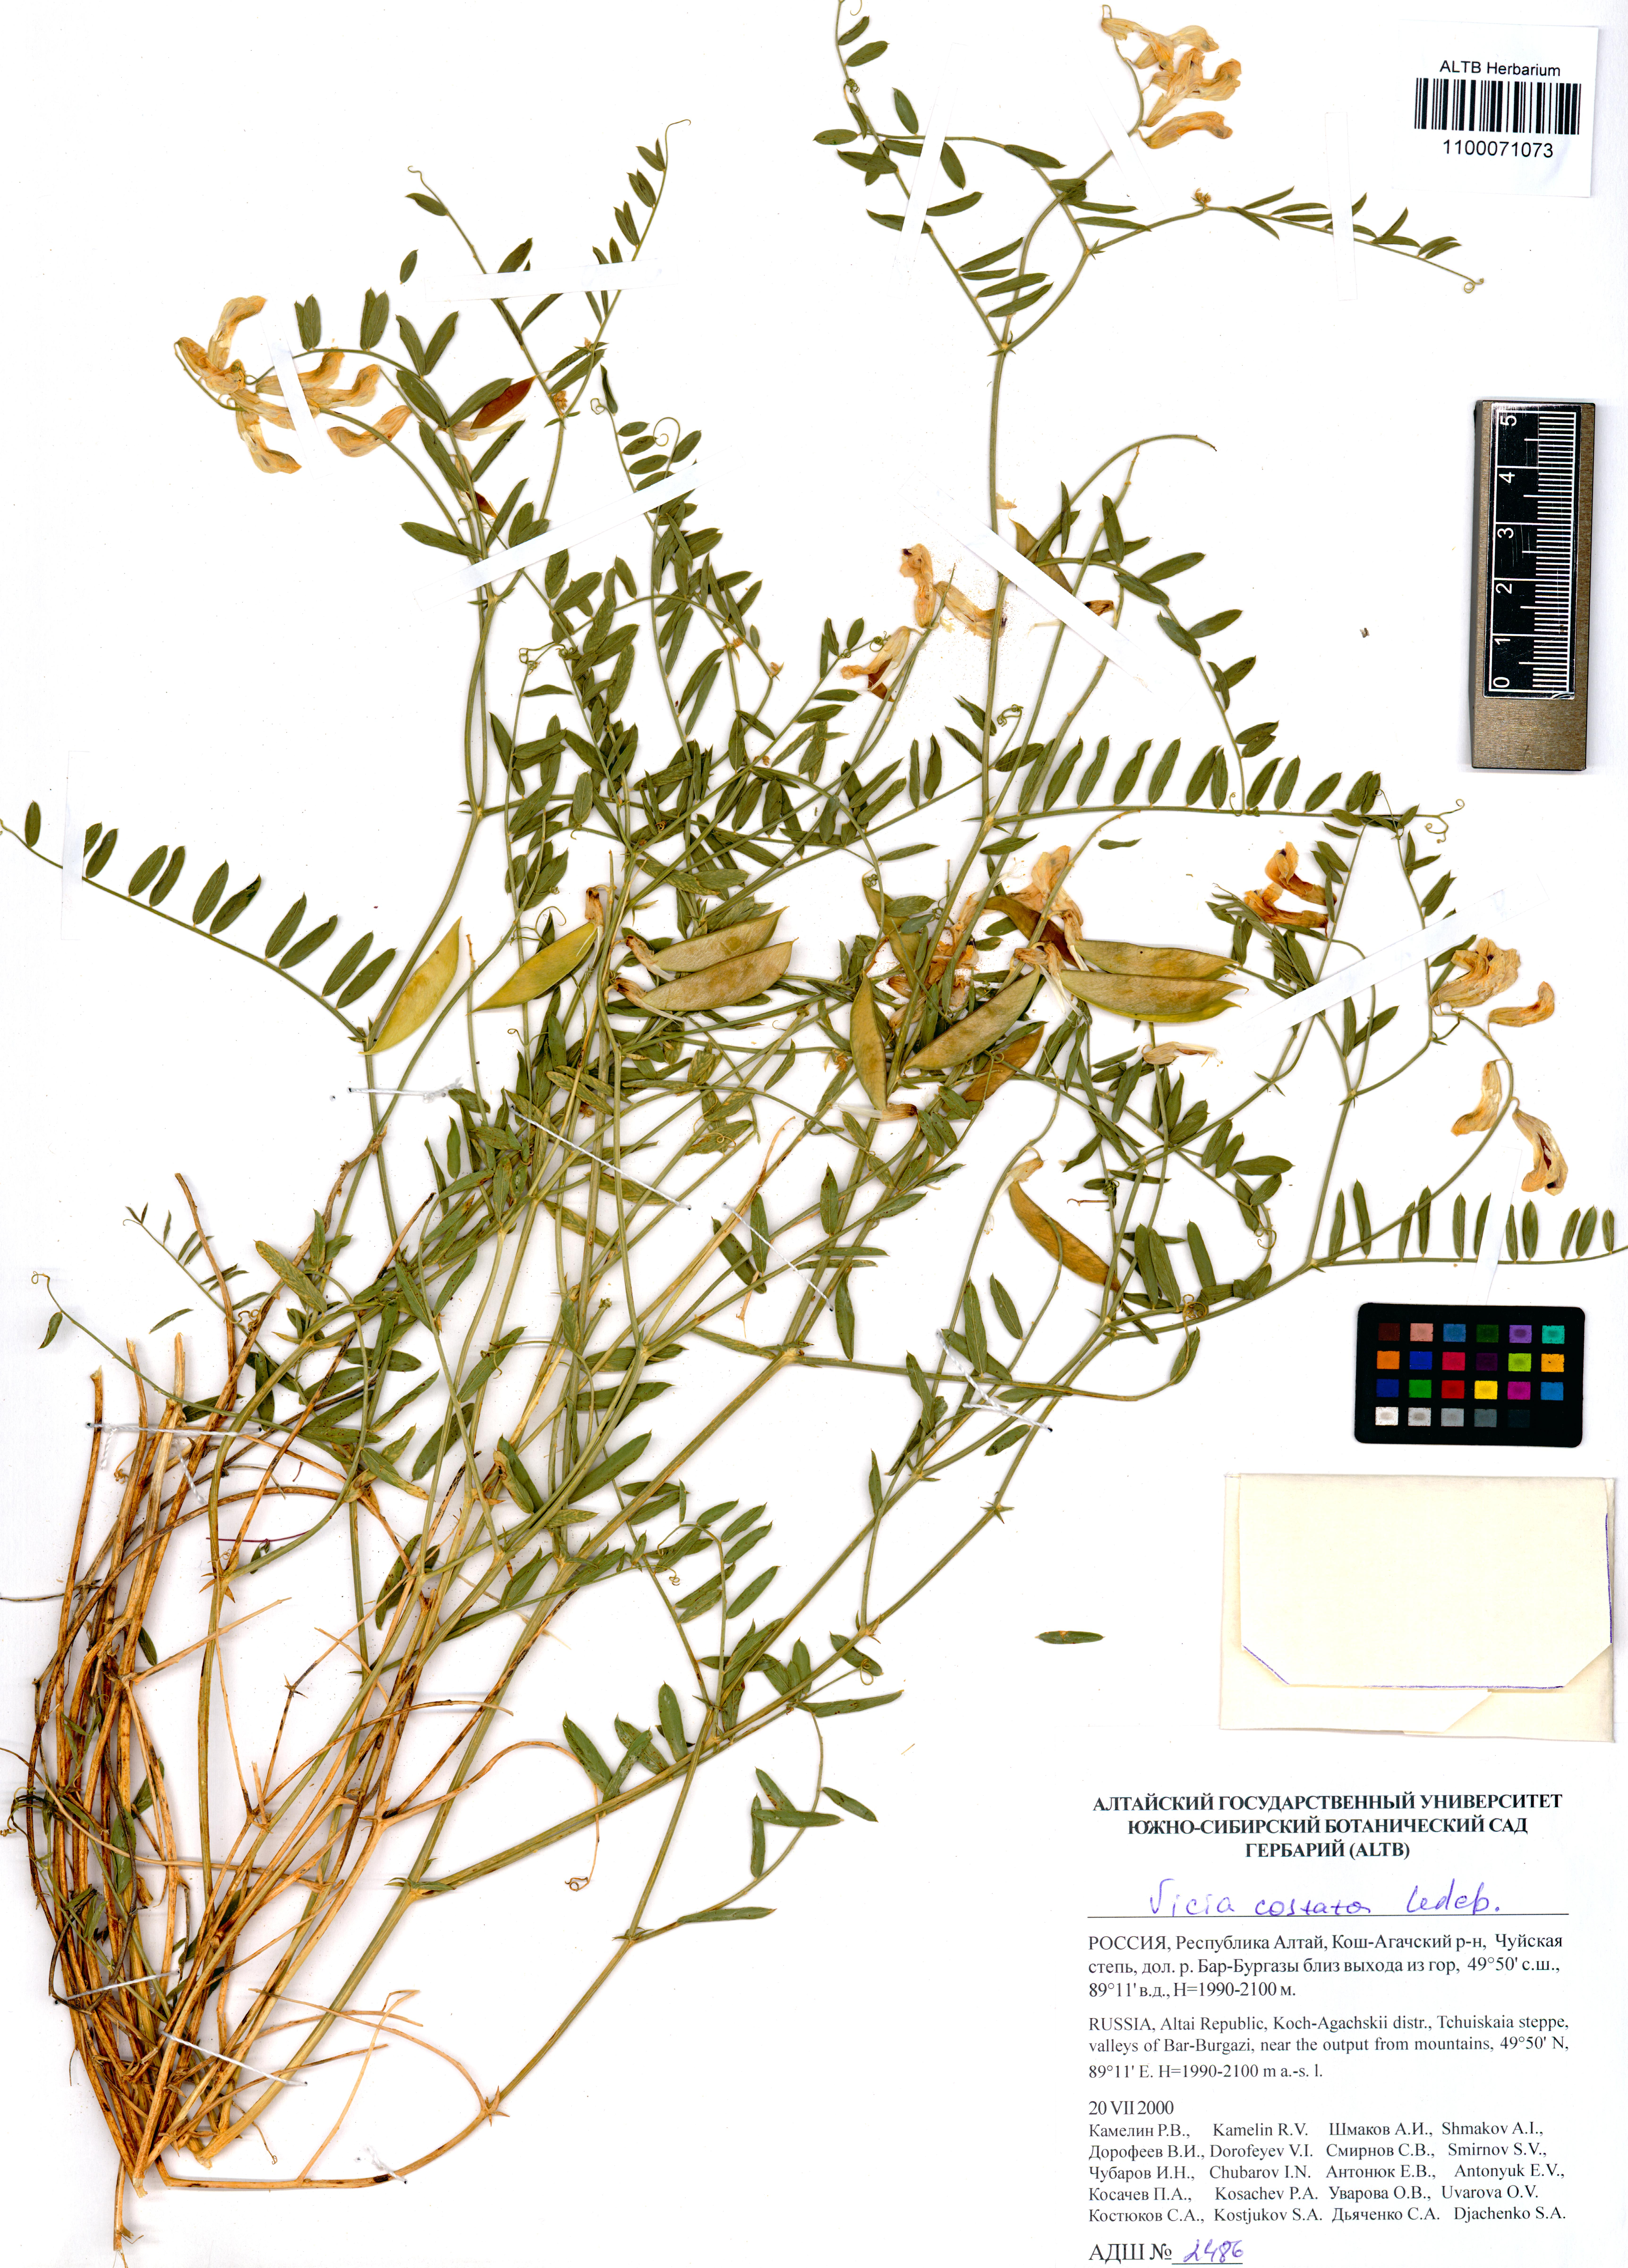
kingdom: Plantae
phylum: Tracheophyta
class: Magnoliopsida
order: Fabales
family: Fabaceae
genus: Vicia
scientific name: Vicia costata
